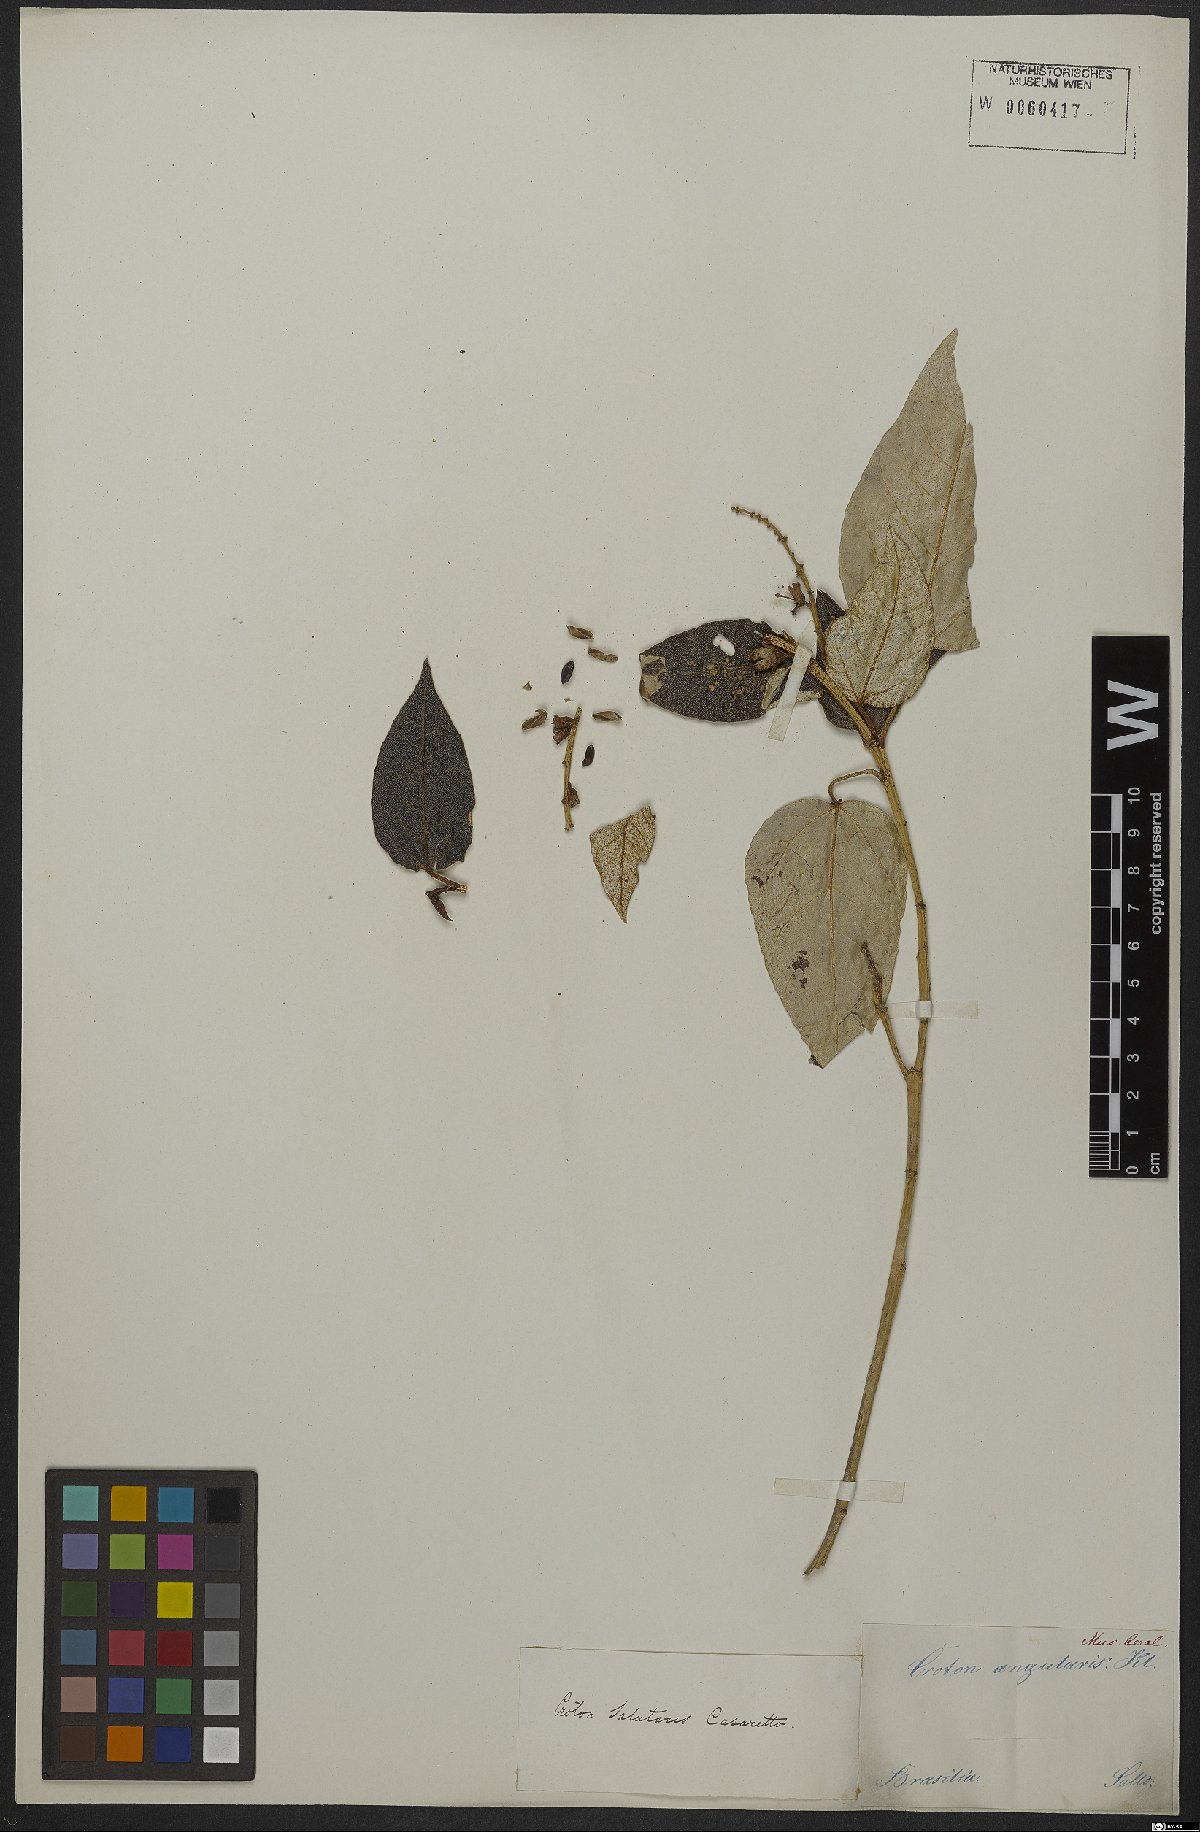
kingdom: Plantae
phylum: Tracheophyta
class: Magnoliopsida
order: Malpighiales
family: Euphorbiaceae
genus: Croton
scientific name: Croton salutaris
